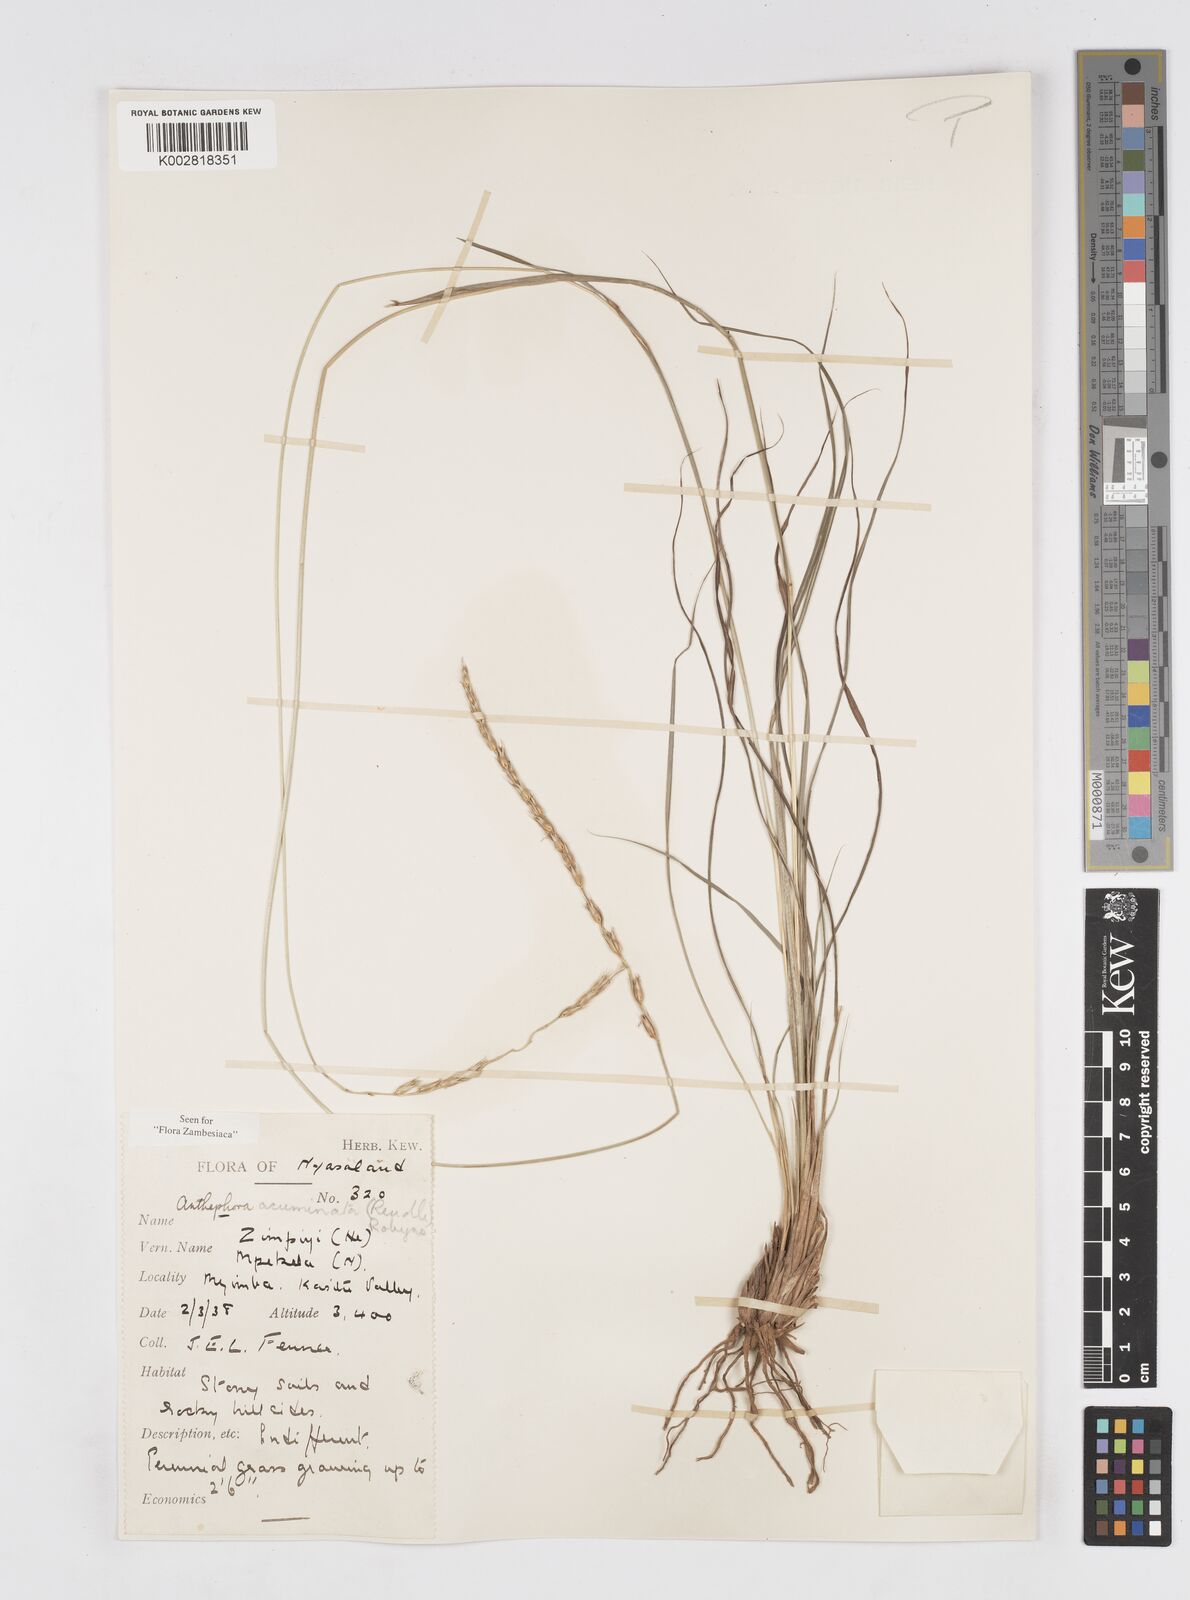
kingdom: Plantae
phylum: Tracheophyta
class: Liliopsida
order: Poales
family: Poaceae
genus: Anthephora
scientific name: Anthephora elongata
